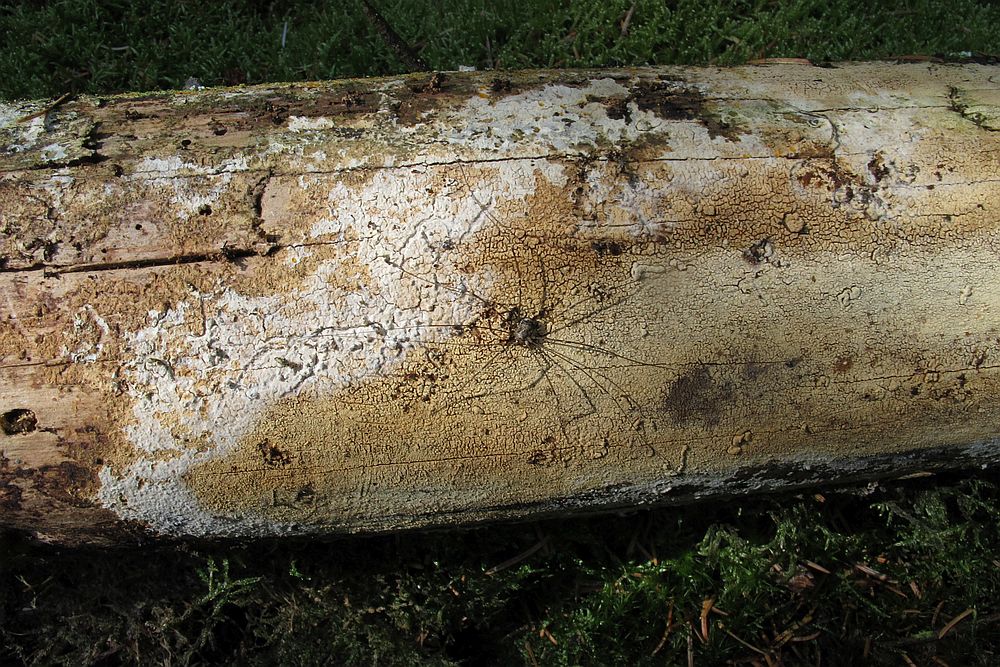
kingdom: Fungi
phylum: Basidiomycota
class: Agaricomycetes
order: Boletales
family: Coniophoraceae
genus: Coniophora
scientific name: Coniophora puteana
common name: gul tømmersvamp
